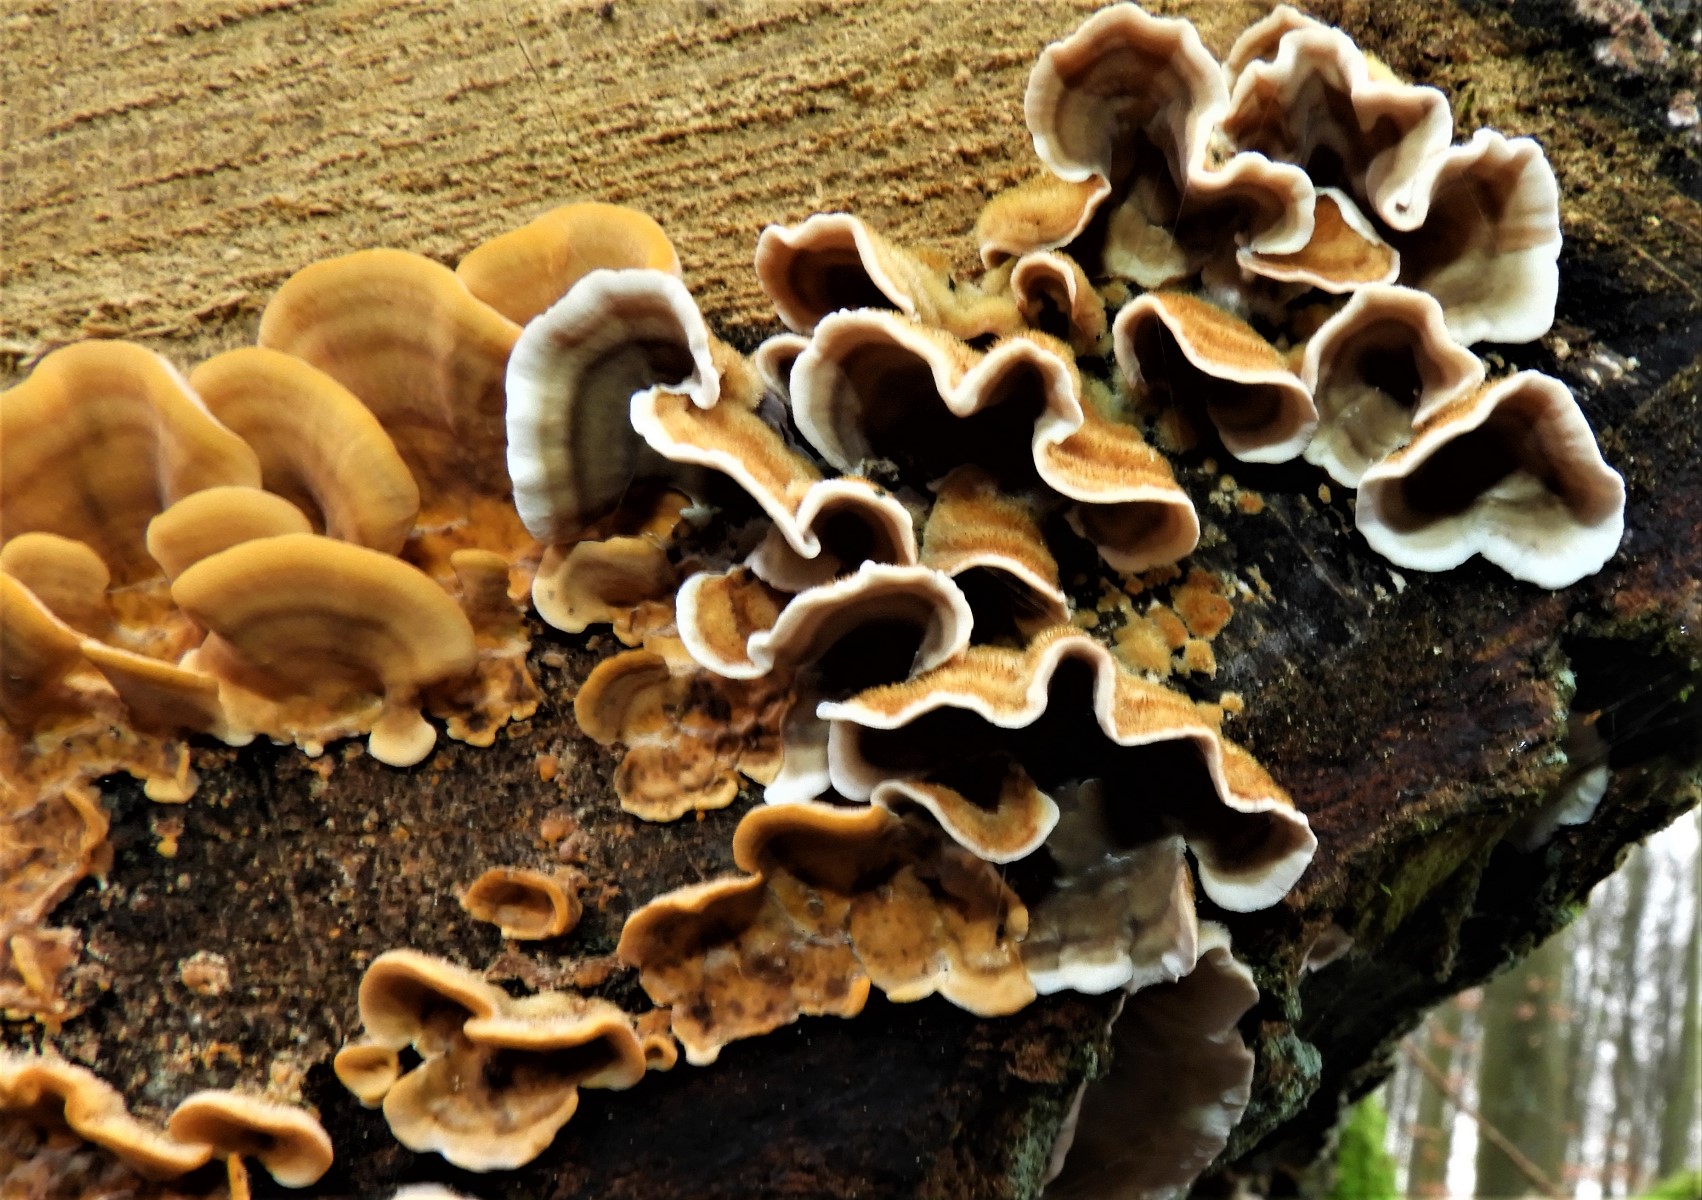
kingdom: Fungi
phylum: Basidiomycota
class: Agaricomycetes
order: Russulales
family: Stereaceae
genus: Stereum
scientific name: Stereum hirsutum
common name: håret lædersvamp
